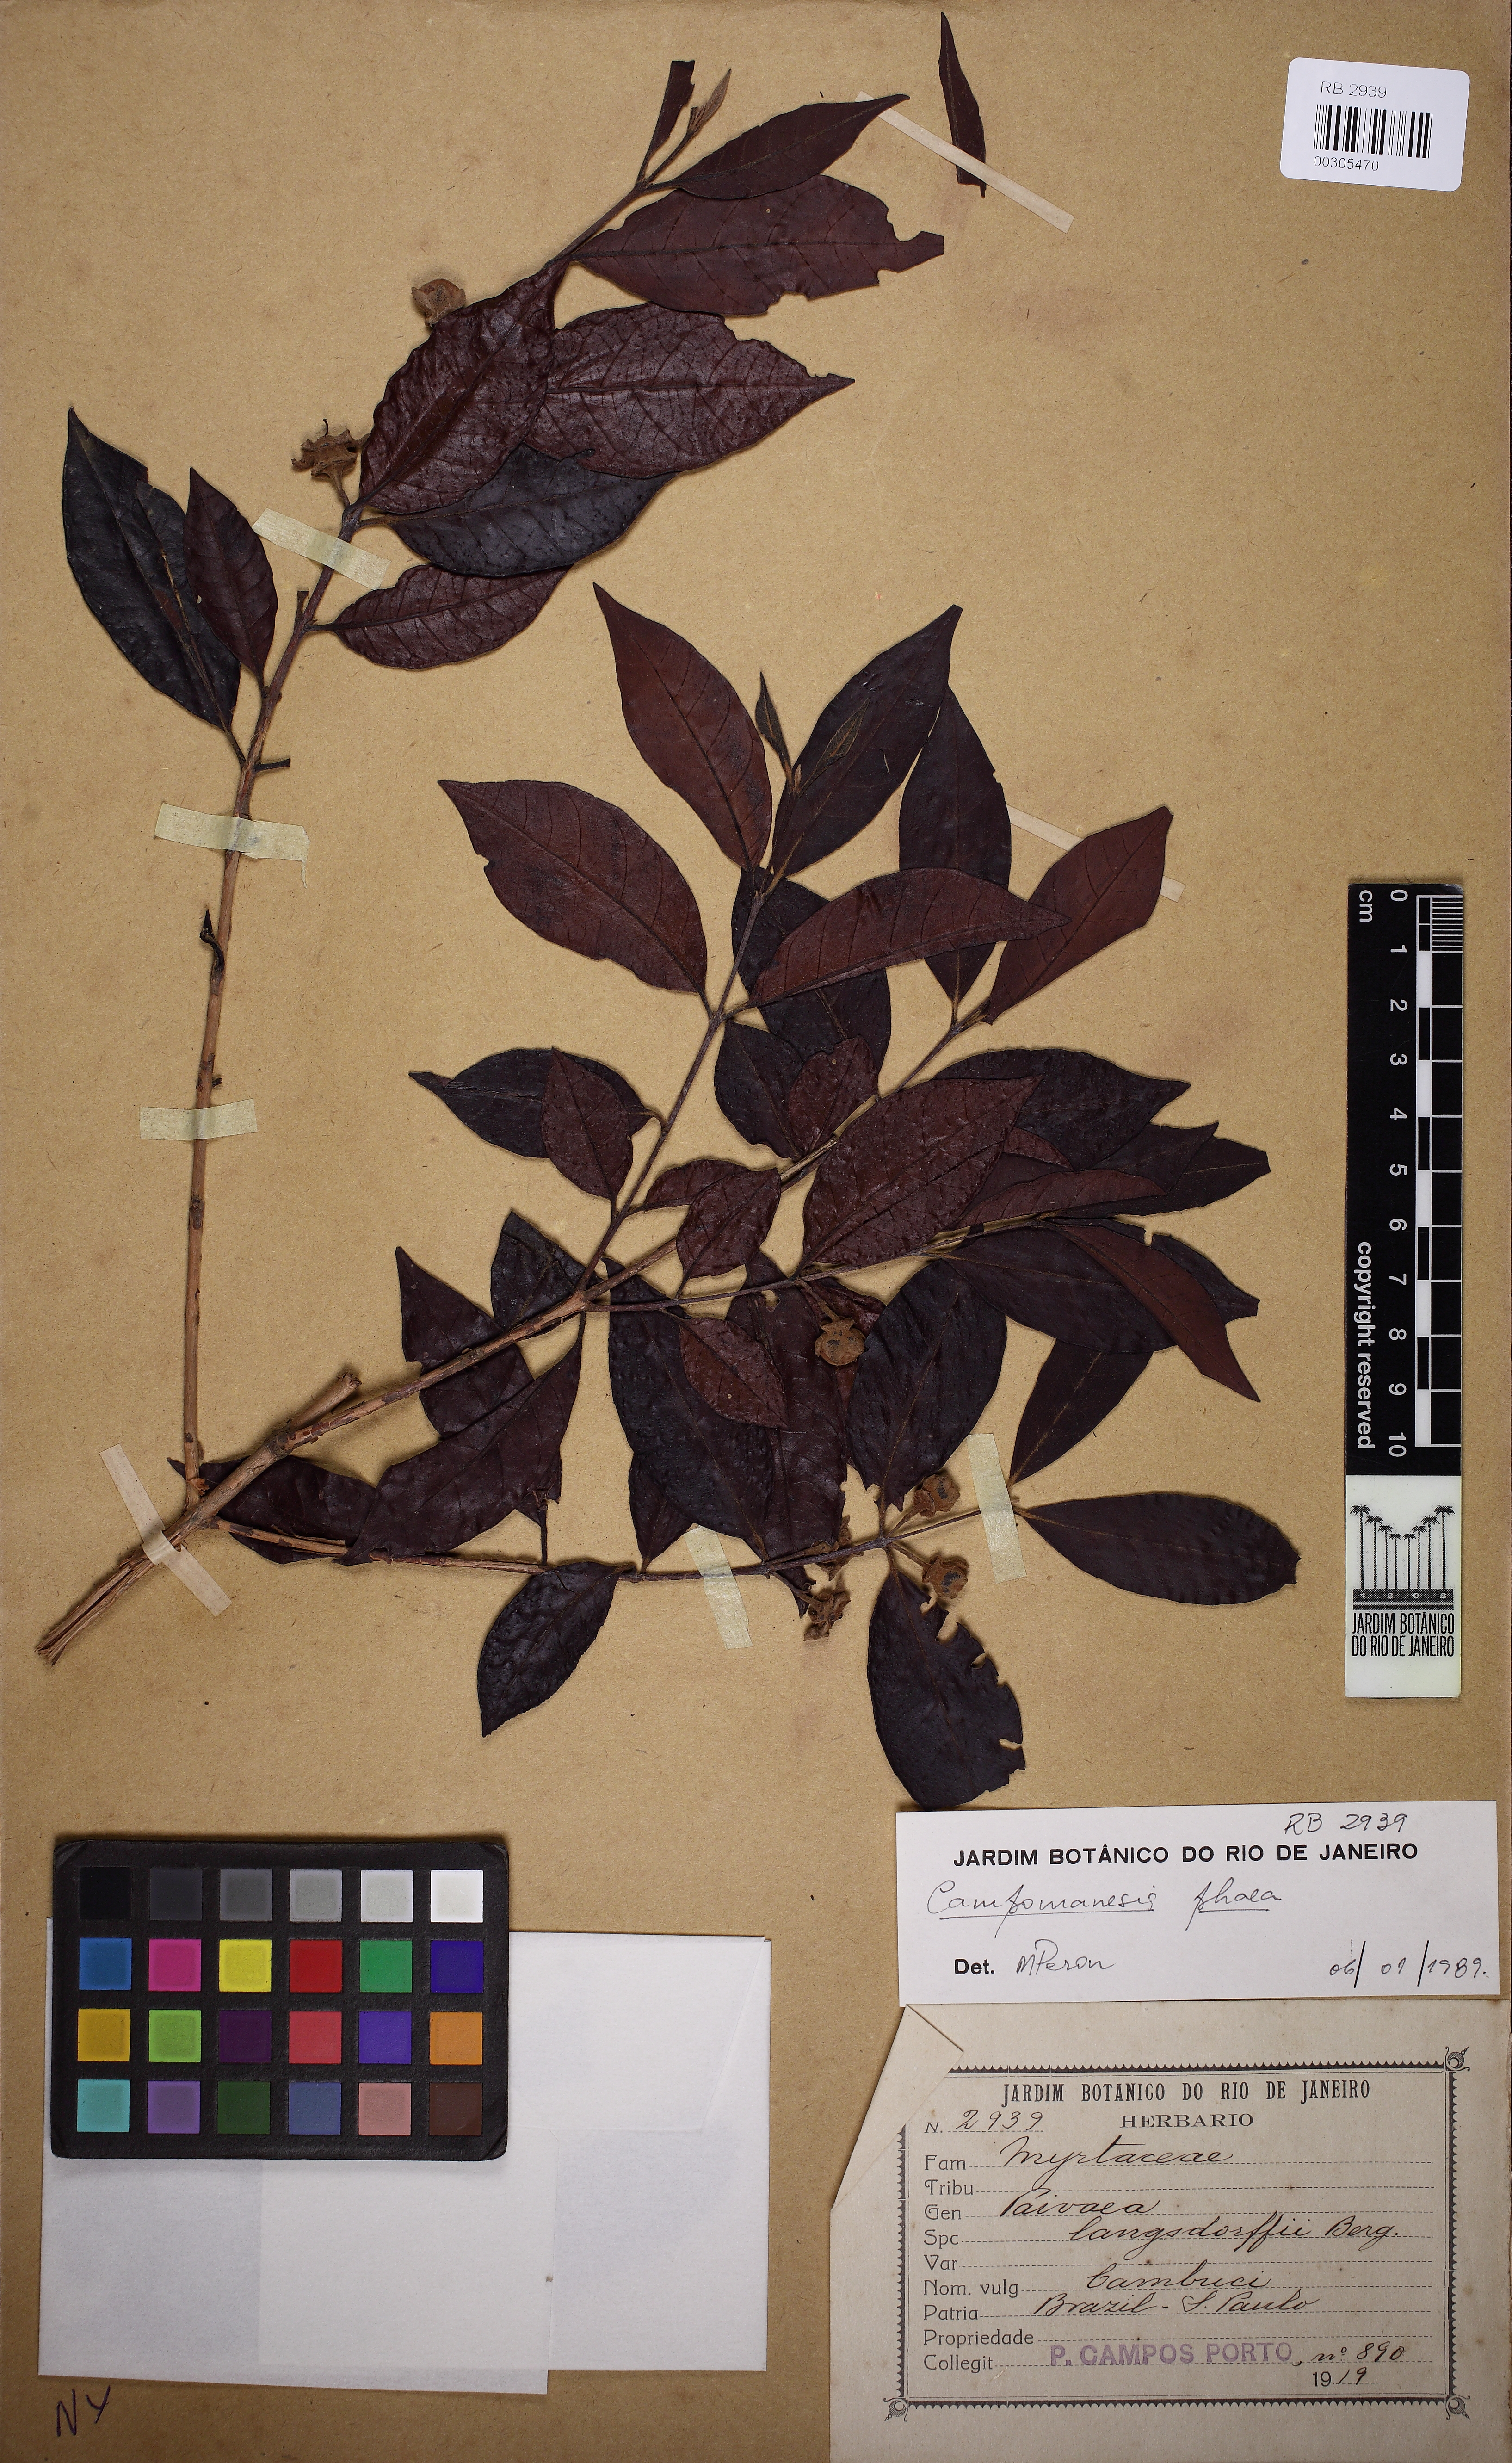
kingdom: Plantae
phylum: Tracheophyta
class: Magnoliopsida
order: Myrtales
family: Myrtaceae
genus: Campomanesia
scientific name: Campomanesia phaea
